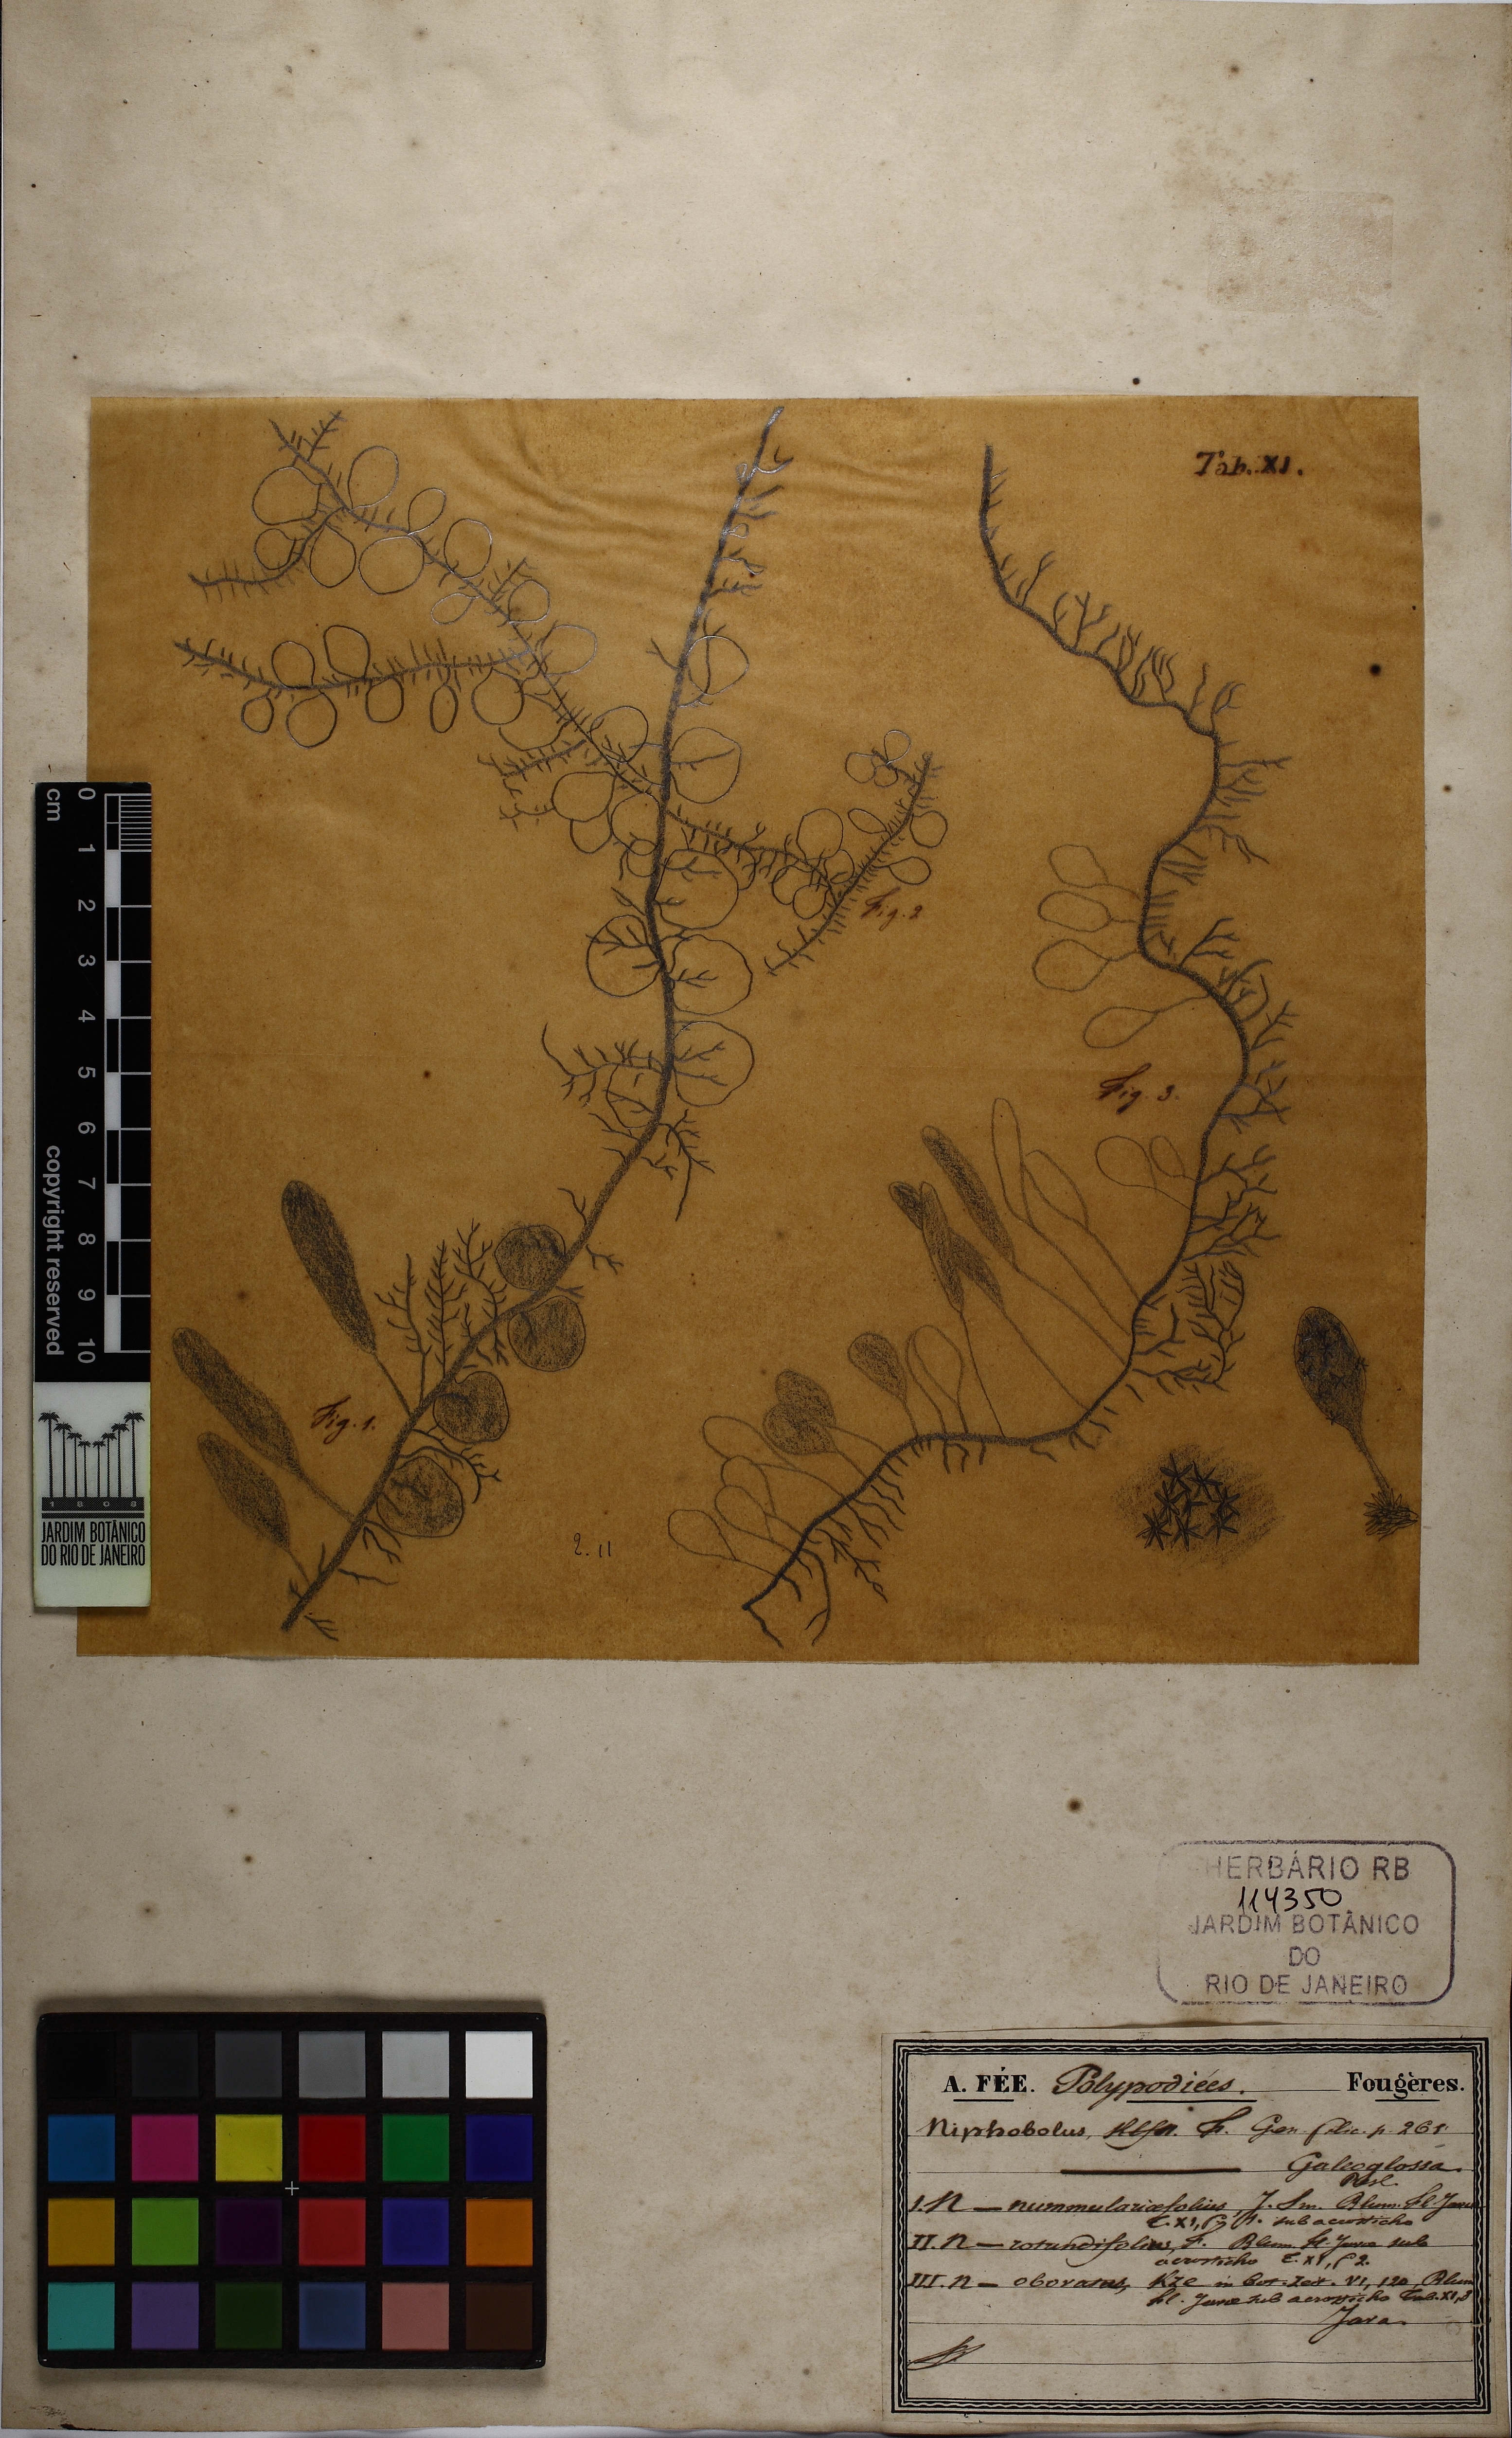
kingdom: Plantae
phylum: Tracheophyta
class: Polypodiopsida
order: Polypodiales
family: Polypodiaceae
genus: Pyrrosia
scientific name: Pyrrosia nummulariifolia
